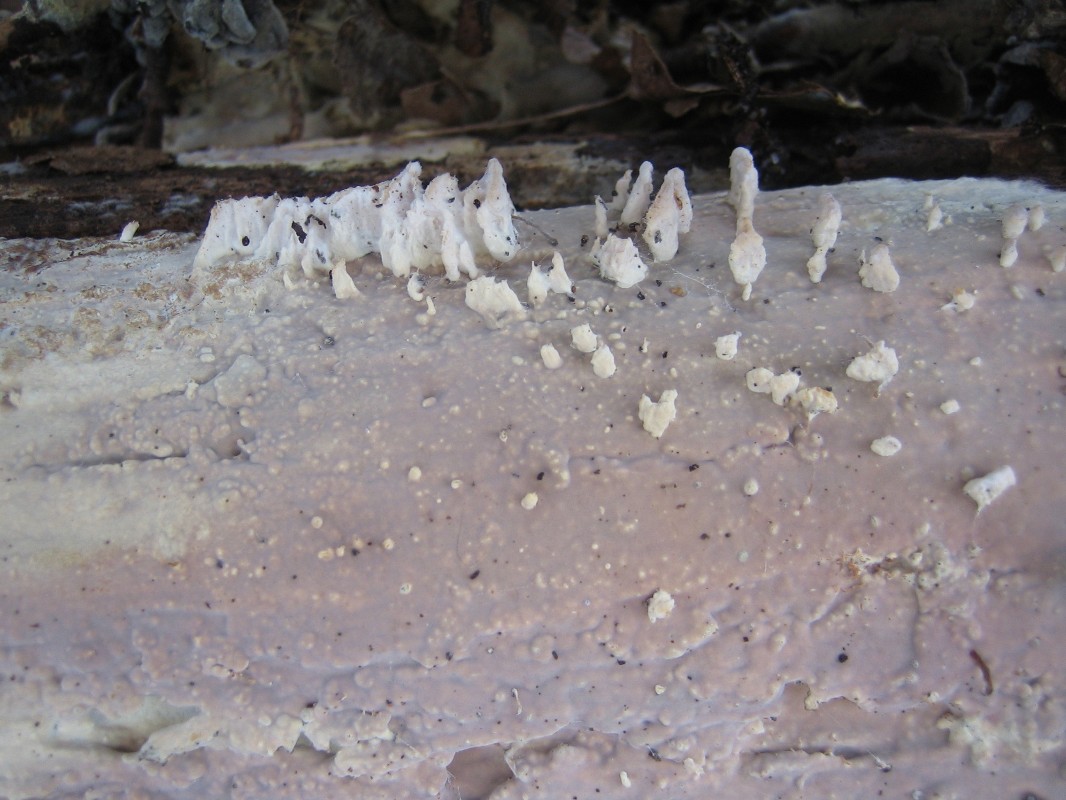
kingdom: Fungi
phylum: Basidiomycota
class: Agaricomycetes
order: Agaricales
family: Radulomycetaceae
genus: Radulomyces
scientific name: Radulomyces confluens
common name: glat naftalinskind
